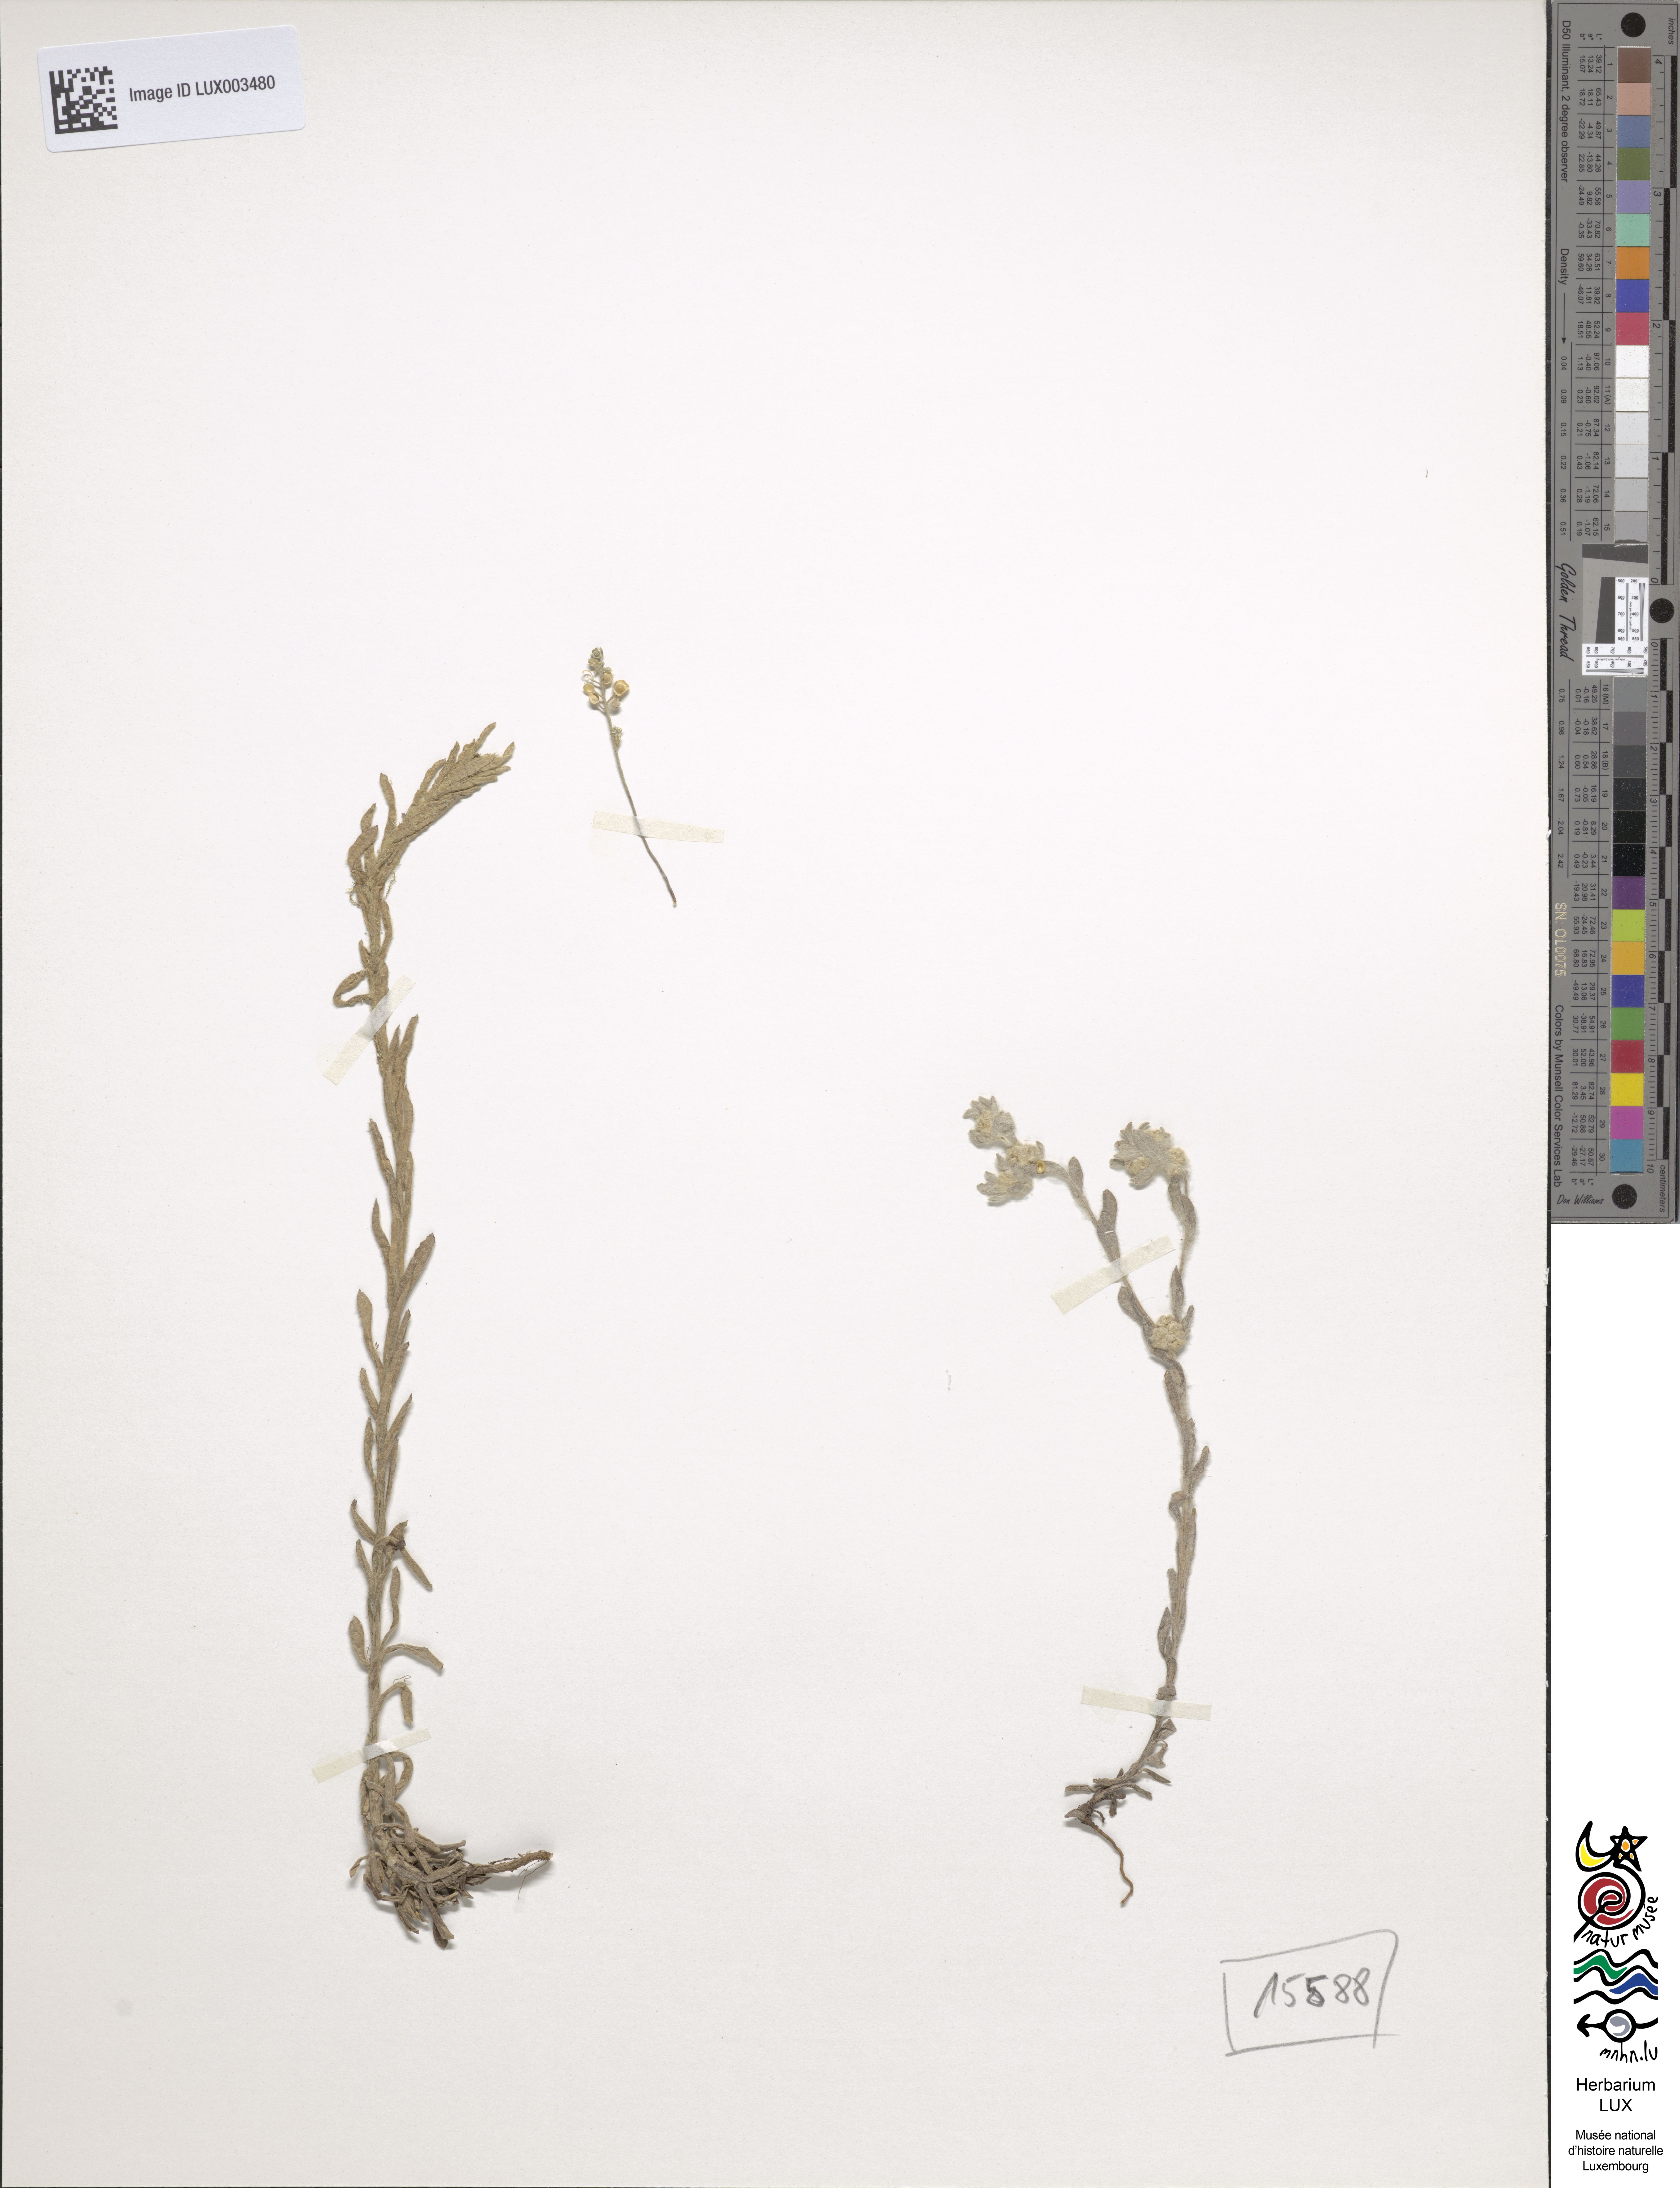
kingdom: Plantae
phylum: Tracheophyta
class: Magnoliopsida
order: Asterales
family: Asteraceae
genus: Bombycilaena
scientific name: Bombycilaena erecta
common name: Micropus
